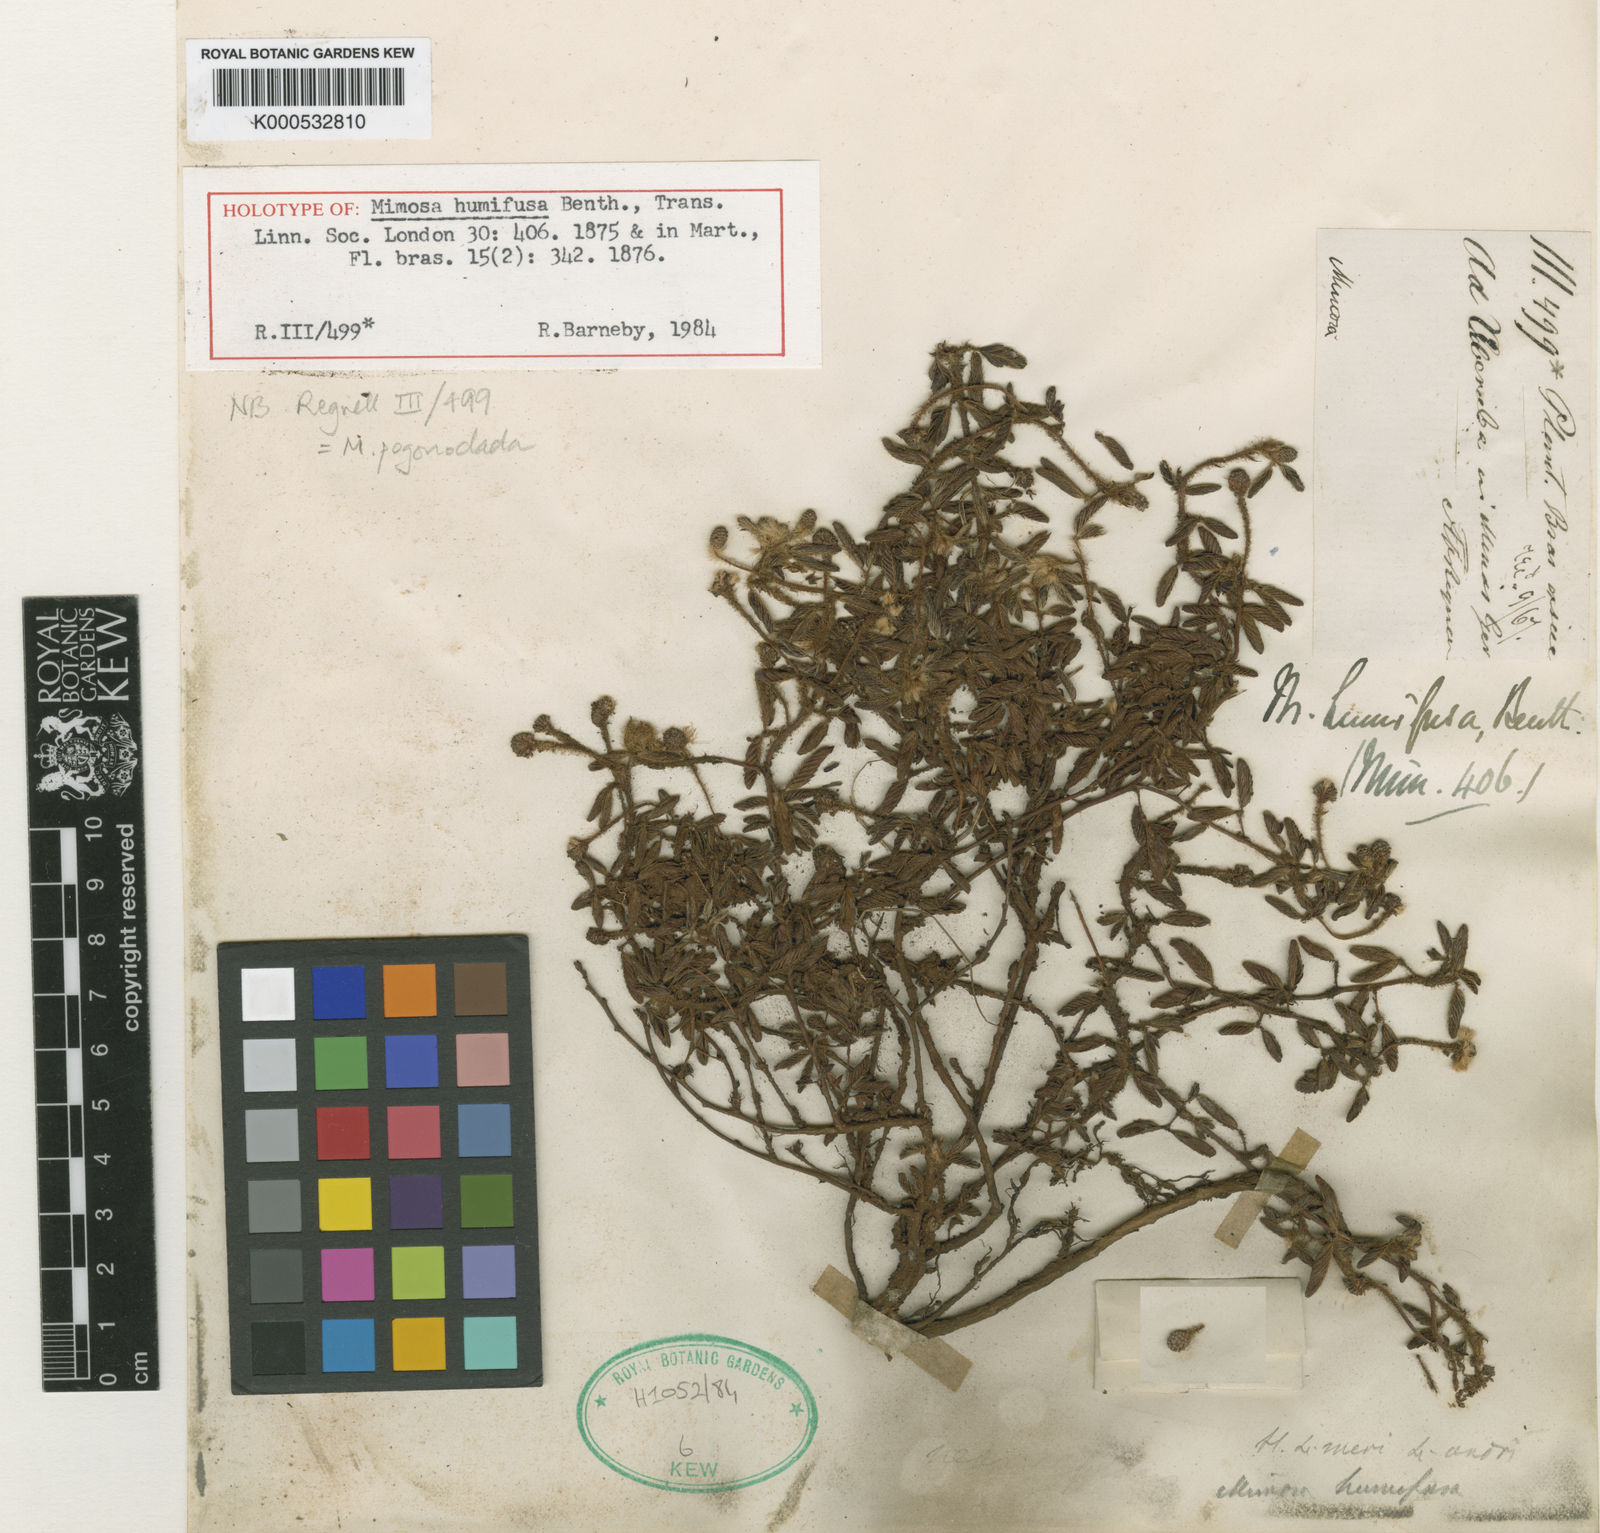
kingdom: Plantae
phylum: Tracheophyta
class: Magnoliopsida
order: Fabales
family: Fabaceae
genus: Mimosa
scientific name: Mimosa humifusa
